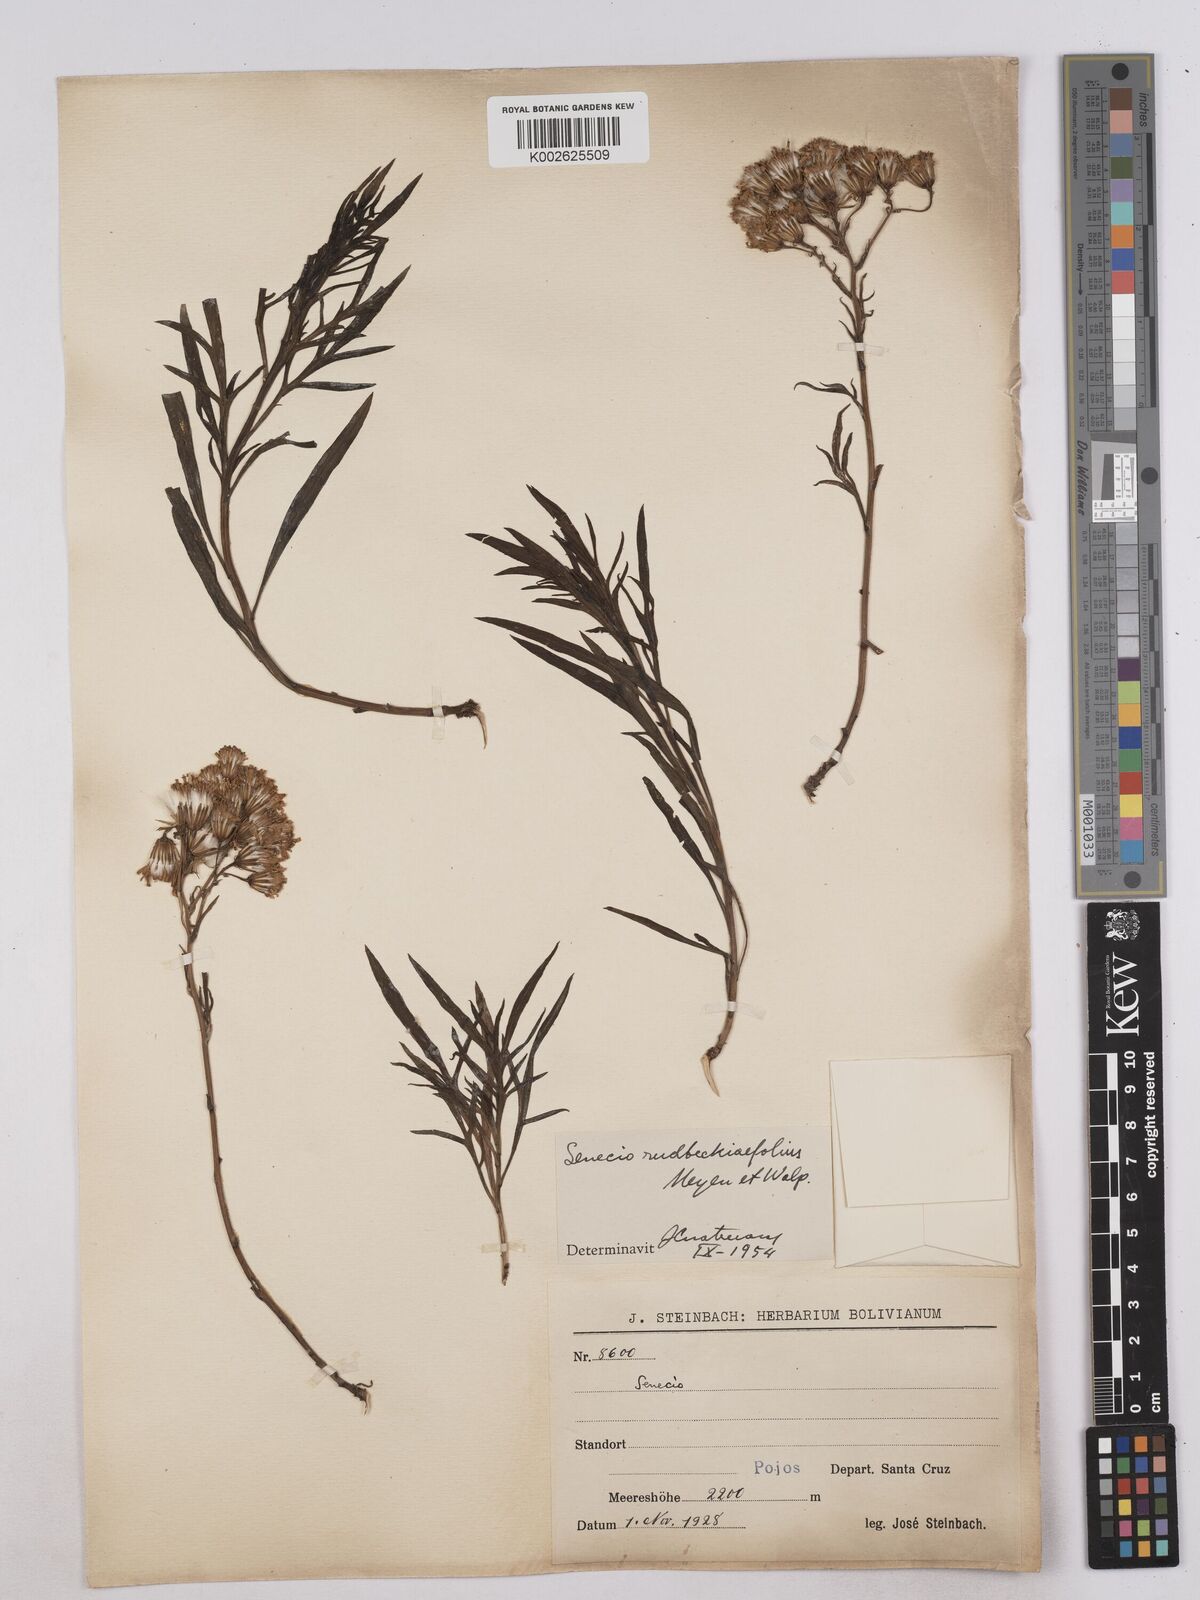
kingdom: Plantae
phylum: Tracheophyta
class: Magnoliopsida
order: Asterales
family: Asteraceae
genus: Senecio
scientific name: Senecio rudbeckiifolius
